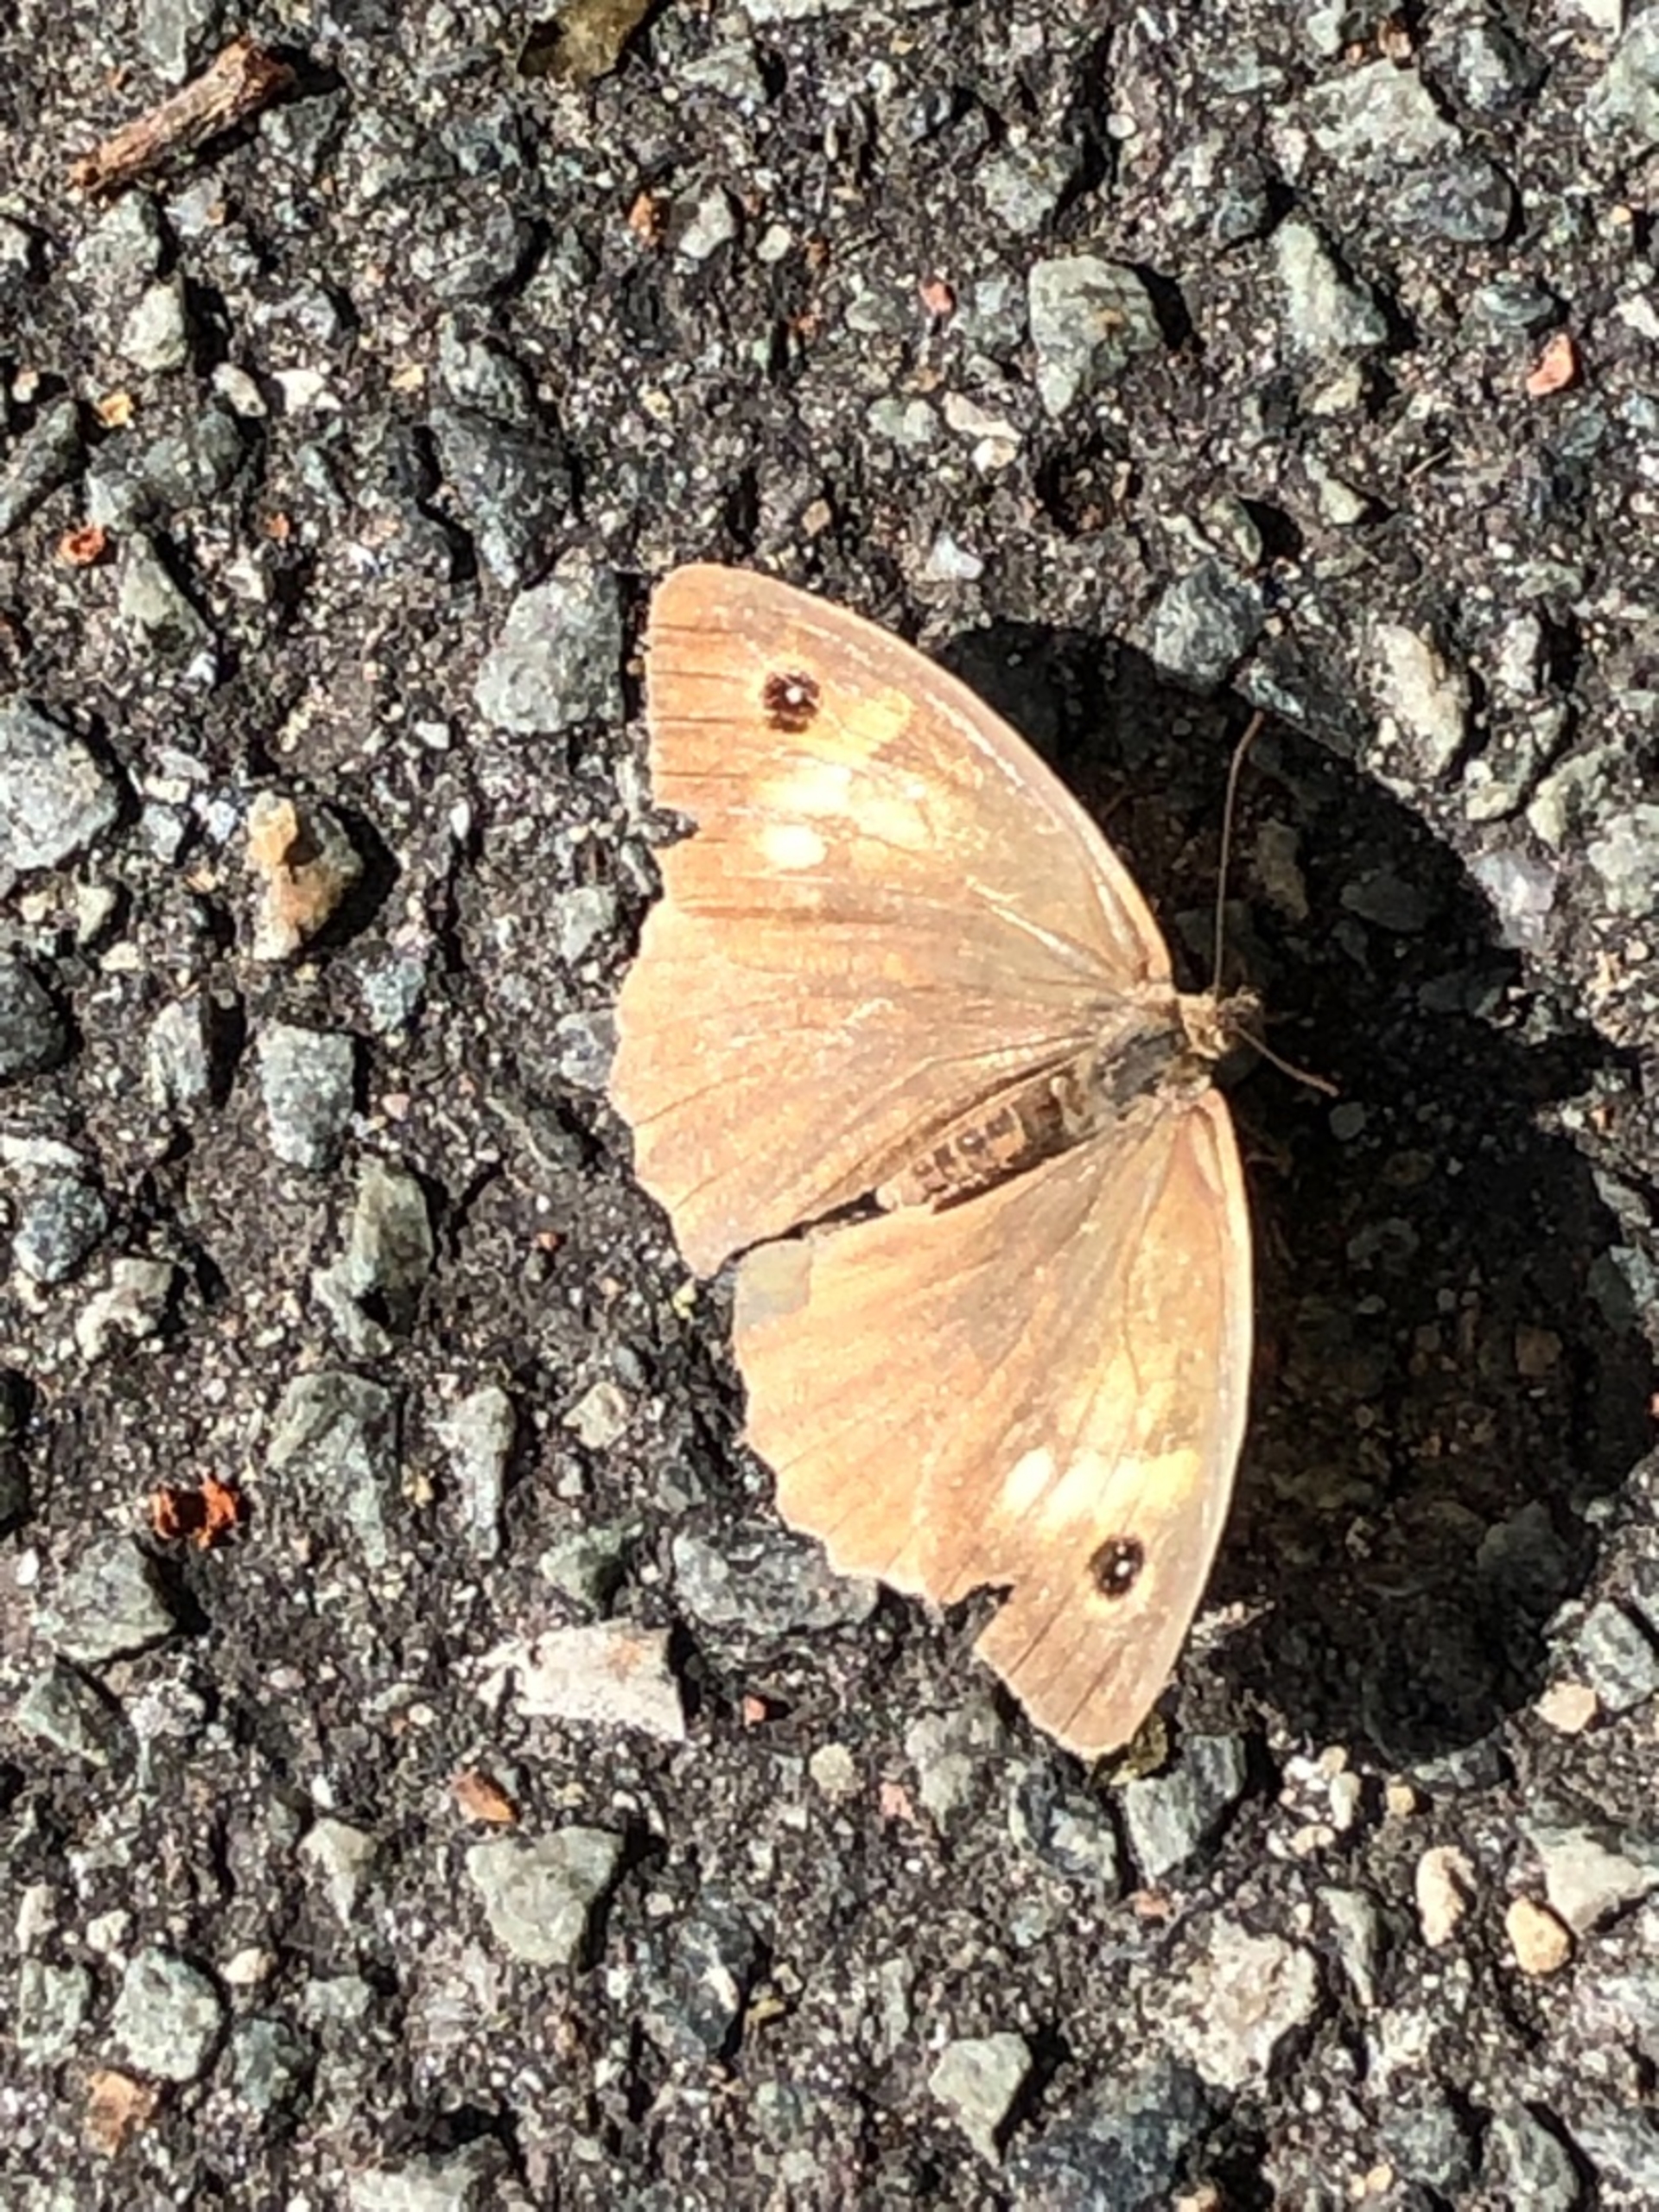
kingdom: Animalia
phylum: Arthropoda
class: Insecta
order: Lepidoptera
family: Nymphalidae
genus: Maniola
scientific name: Maniola jurtina
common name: Græsrandøje
